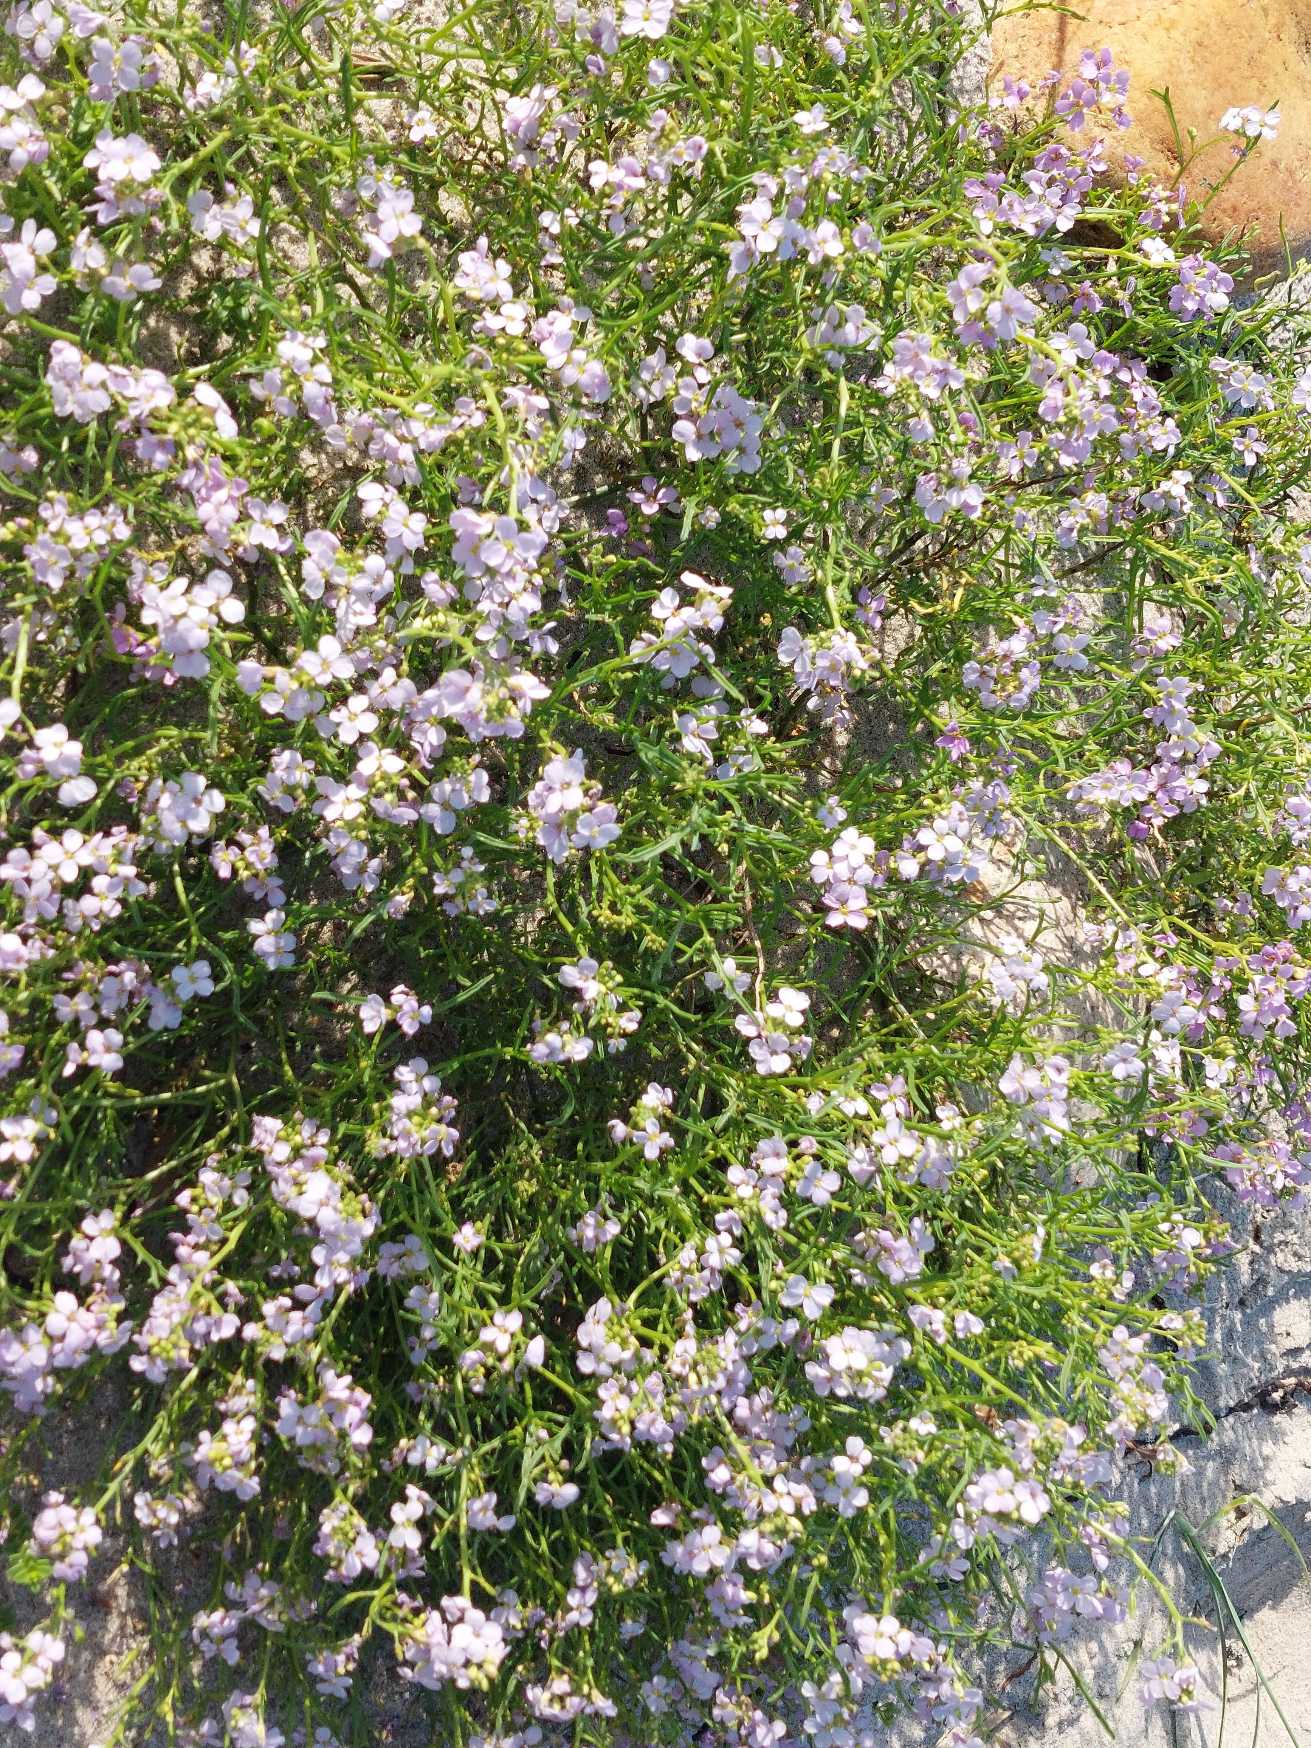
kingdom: Plantae
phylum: Tracheophyta
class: Magnoliopsida
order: Brassicales
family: Brassicaceae
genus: Cakile
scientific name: Cakile maritima
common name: Strandsennep
